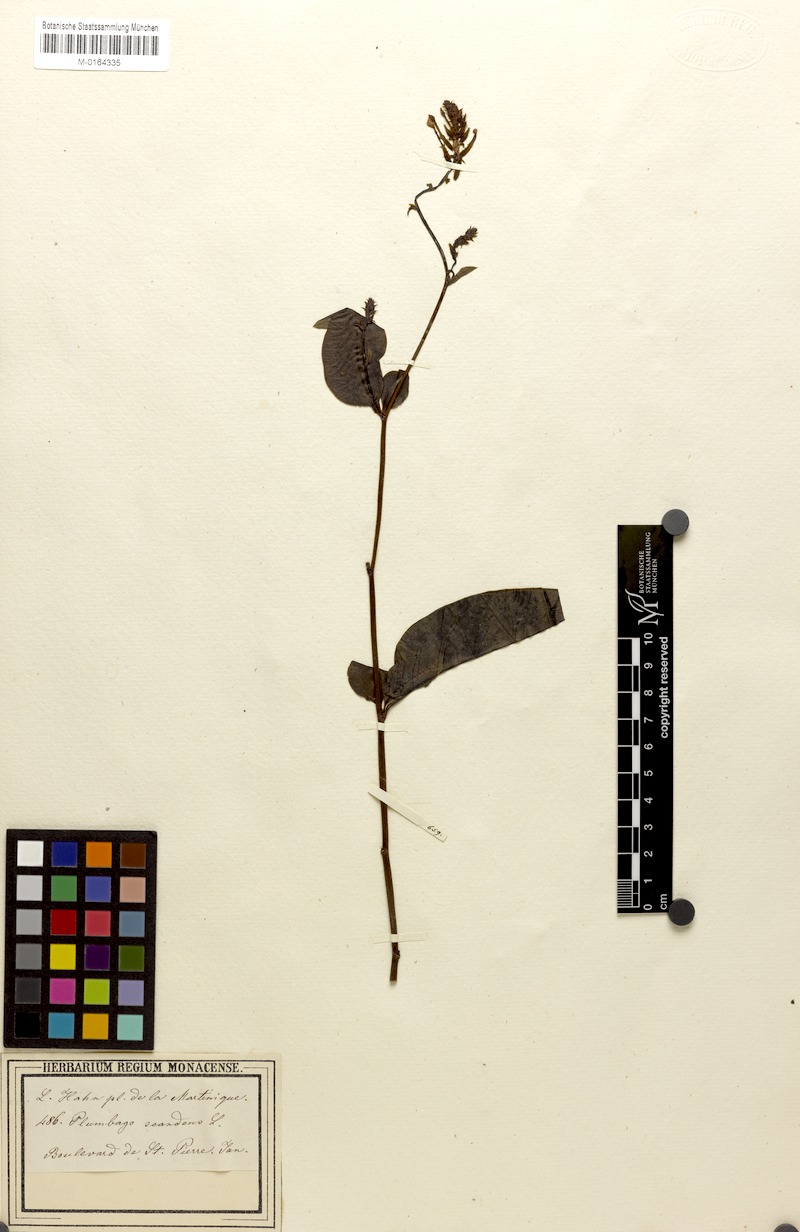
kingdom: Plantae
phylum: Tracheophyta
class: Magnoliopsida
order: Caryophyllales
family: Plumbaginaceae
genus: Plumbago
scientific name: Plumbago zeylanica
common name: Doctorbush
